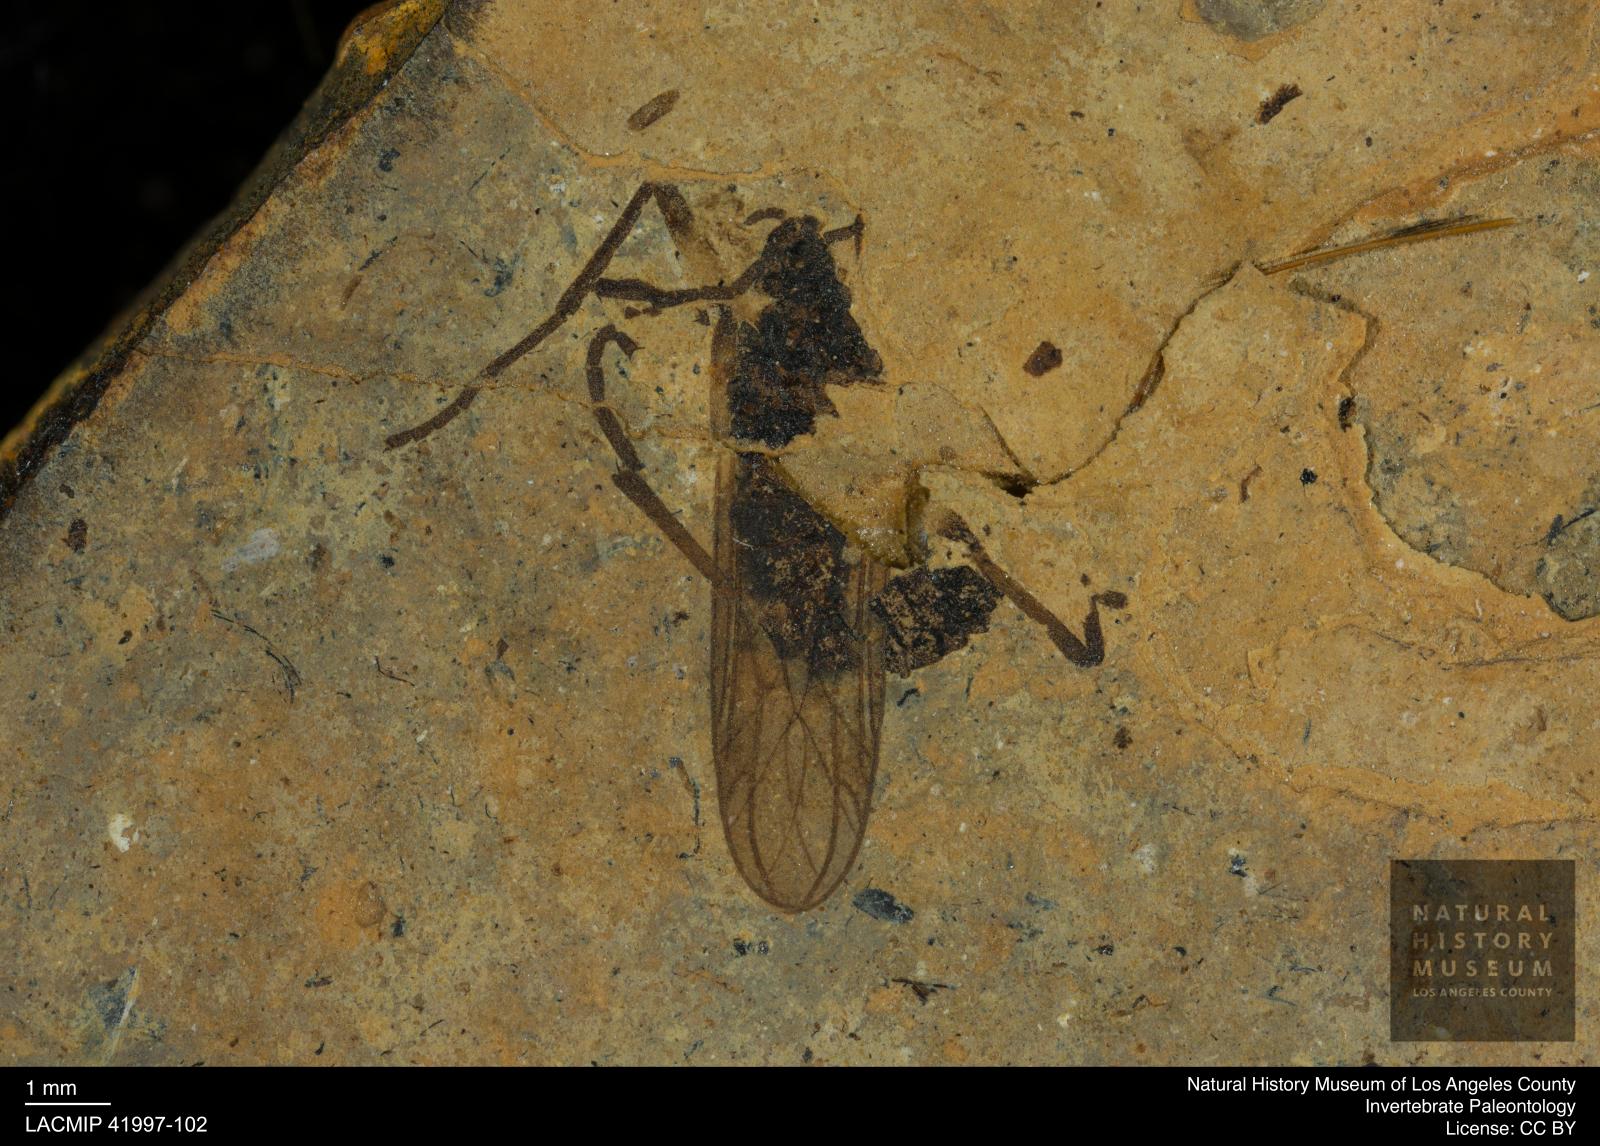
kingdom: Animalia
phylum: Arthropoda
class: Insecta
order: Diptera
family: Hesperinidae
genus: Hesperinus
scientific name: Hesperinus heeri
